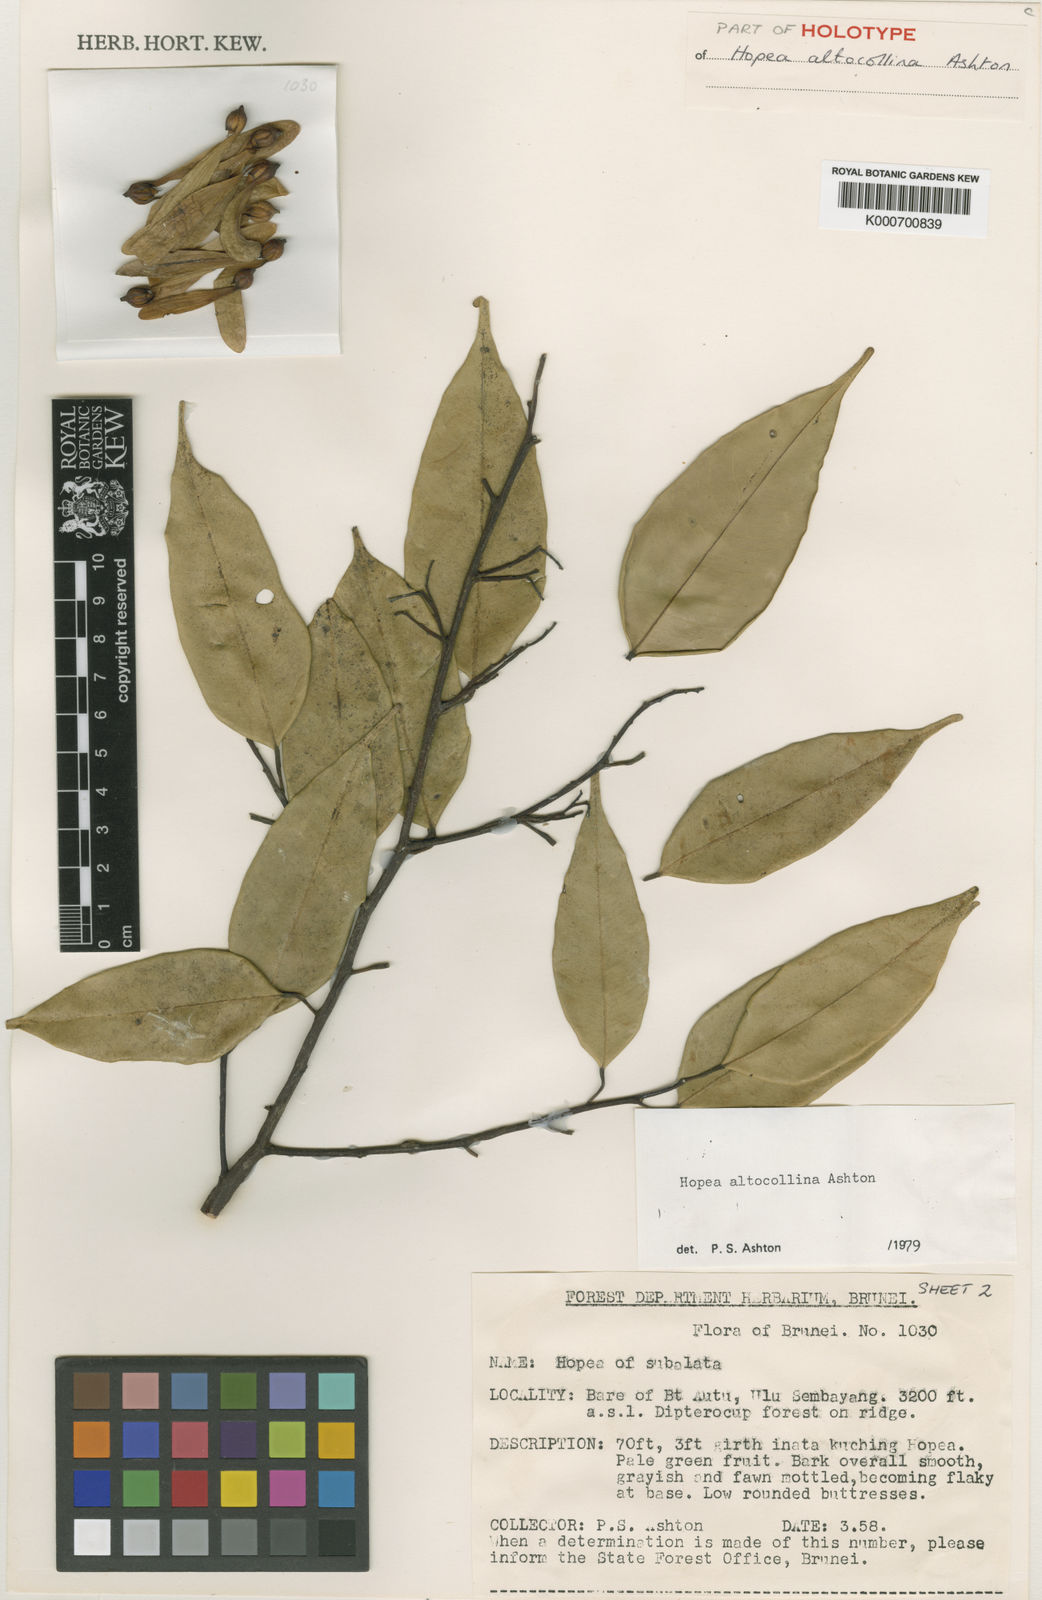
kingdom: Plantae
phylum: Tracheophyta
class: Magnoliopsida
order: Malvales
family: Dipterocarpaceae
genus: Hopea
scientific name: Hopea altocollina
